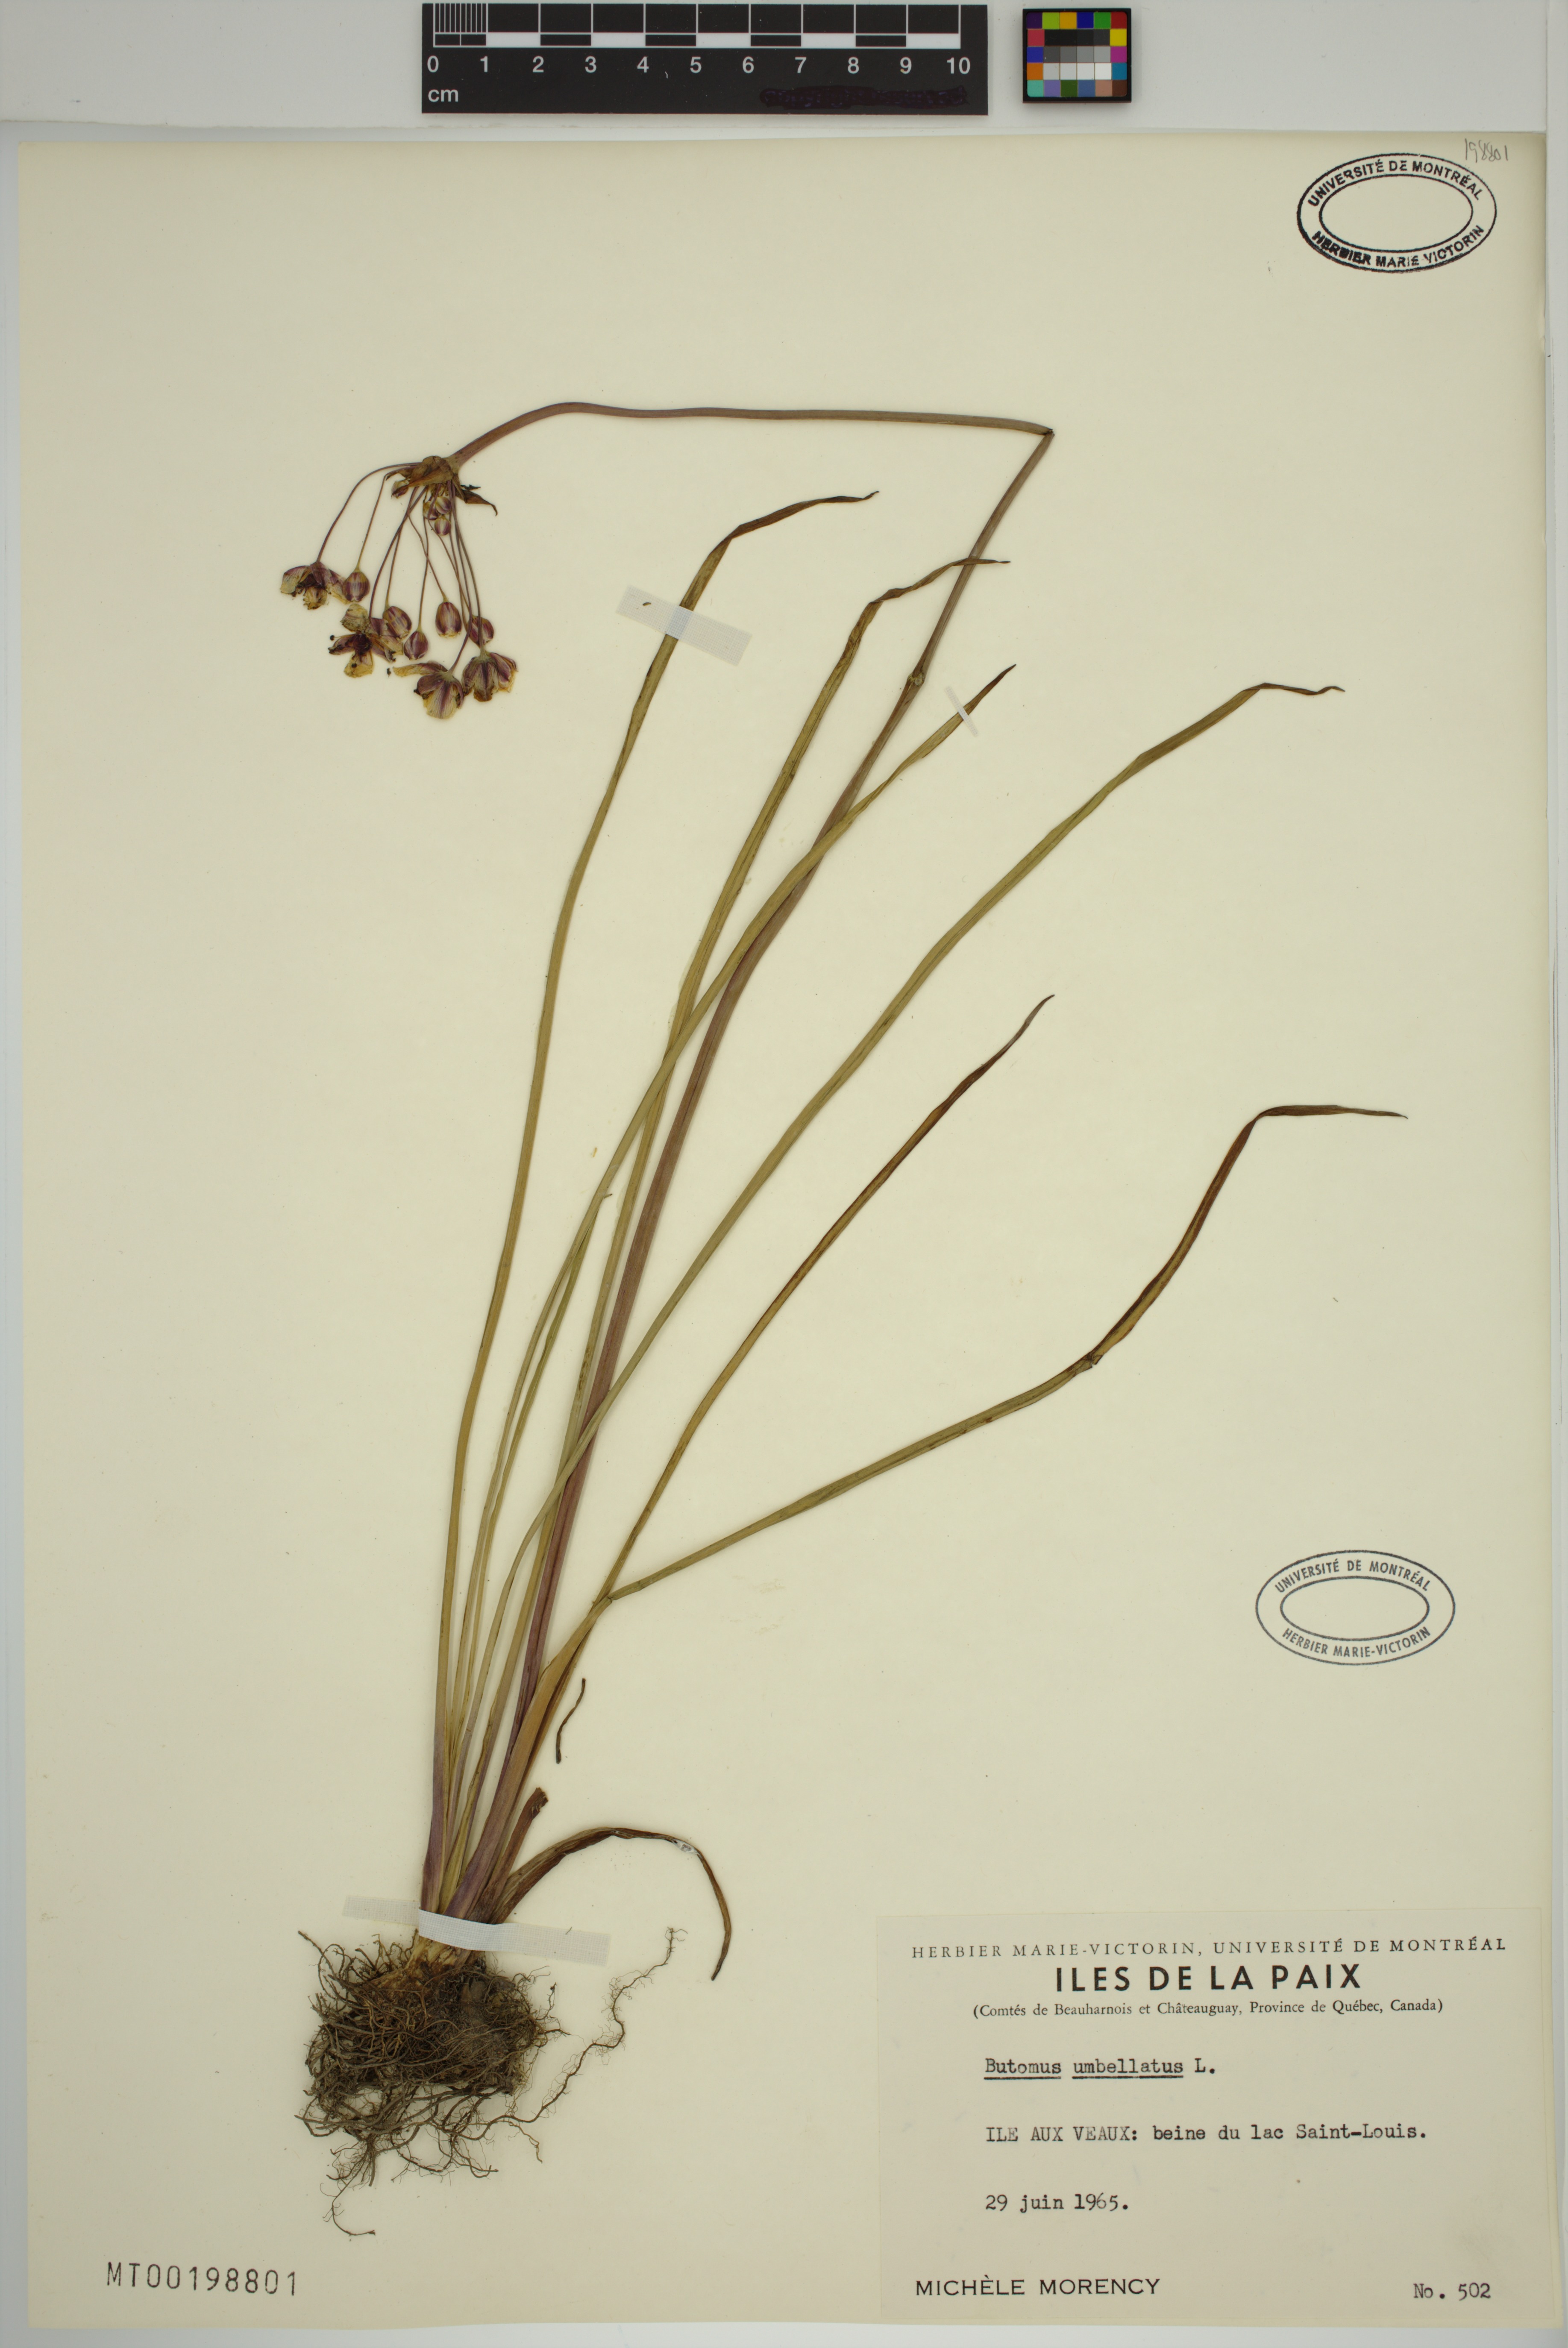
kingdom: Plantae
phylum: Tracheophyta
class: Liliopsida
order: Alismatales
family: Butomaceae
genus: Butomus
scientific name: Butomus umbellatus
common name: Flowering-rush
